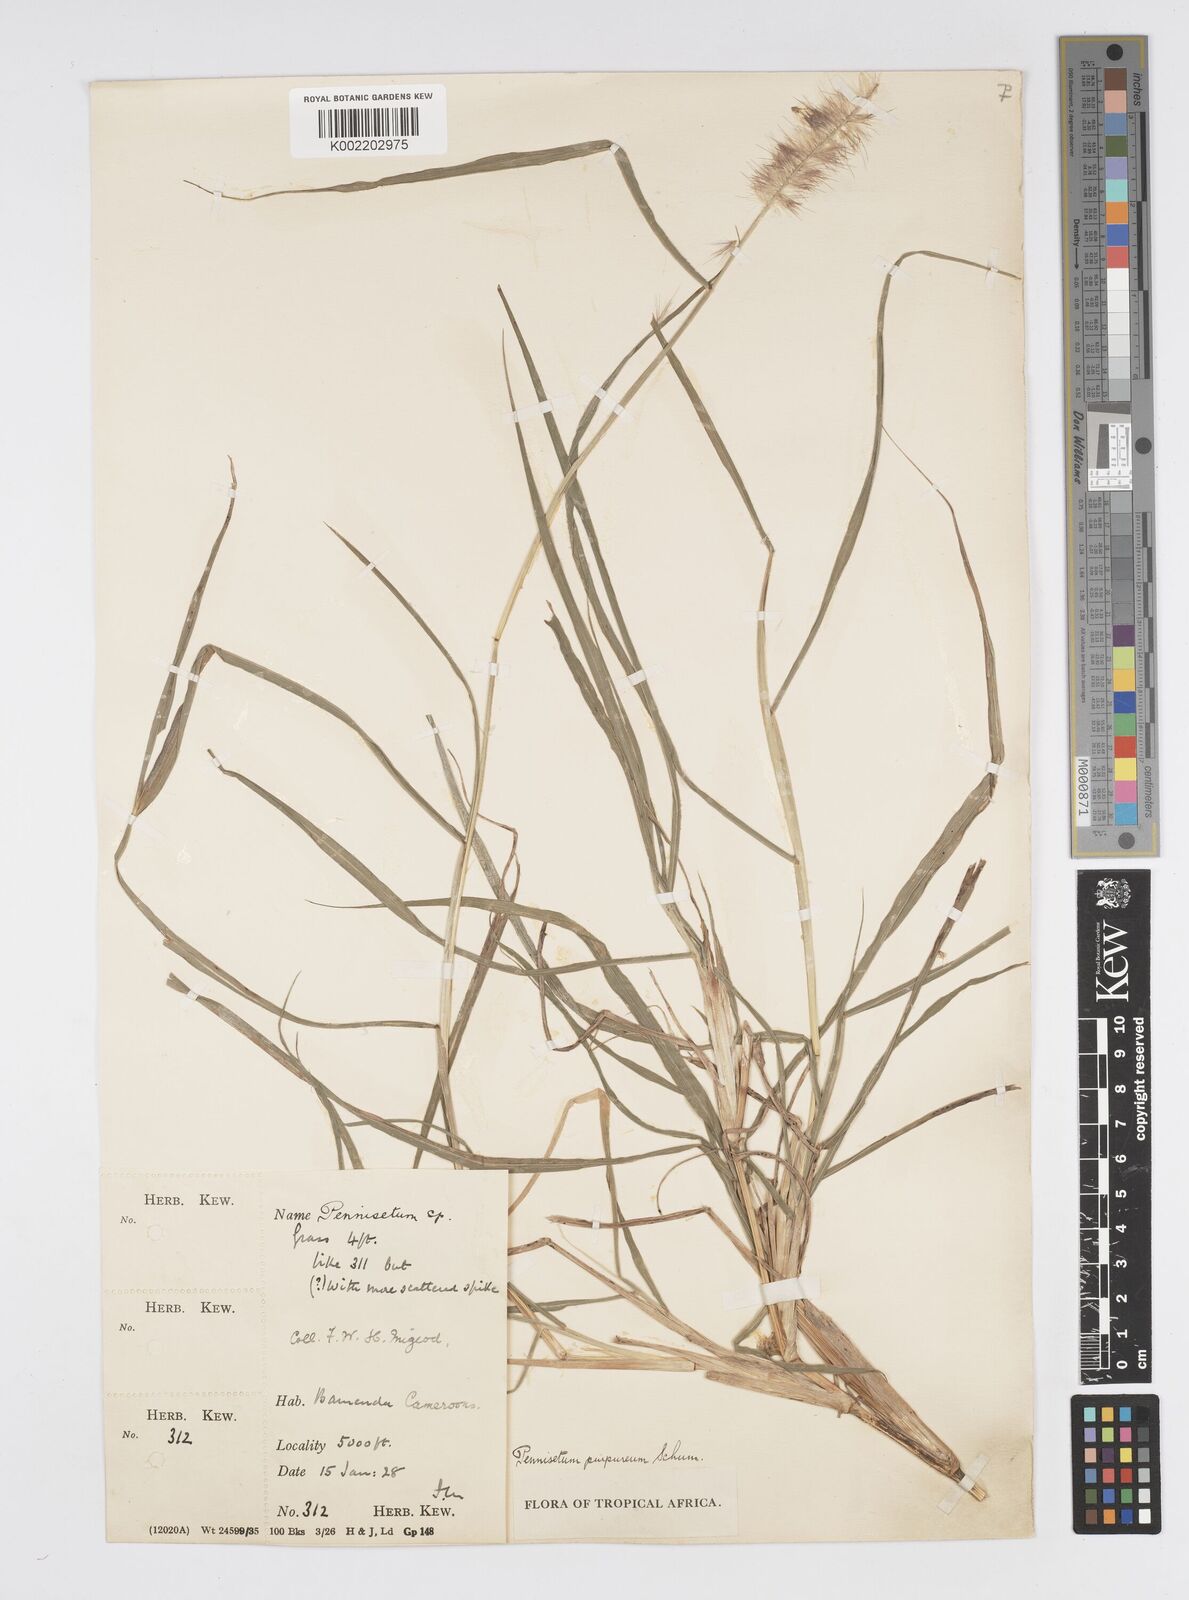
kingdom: Plantae
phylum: Tracheophyta
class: Liliopsida
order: Poales
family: Poaceae
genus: Cenchrus
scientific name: Cenchrus purpureus
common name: Elephant grass
